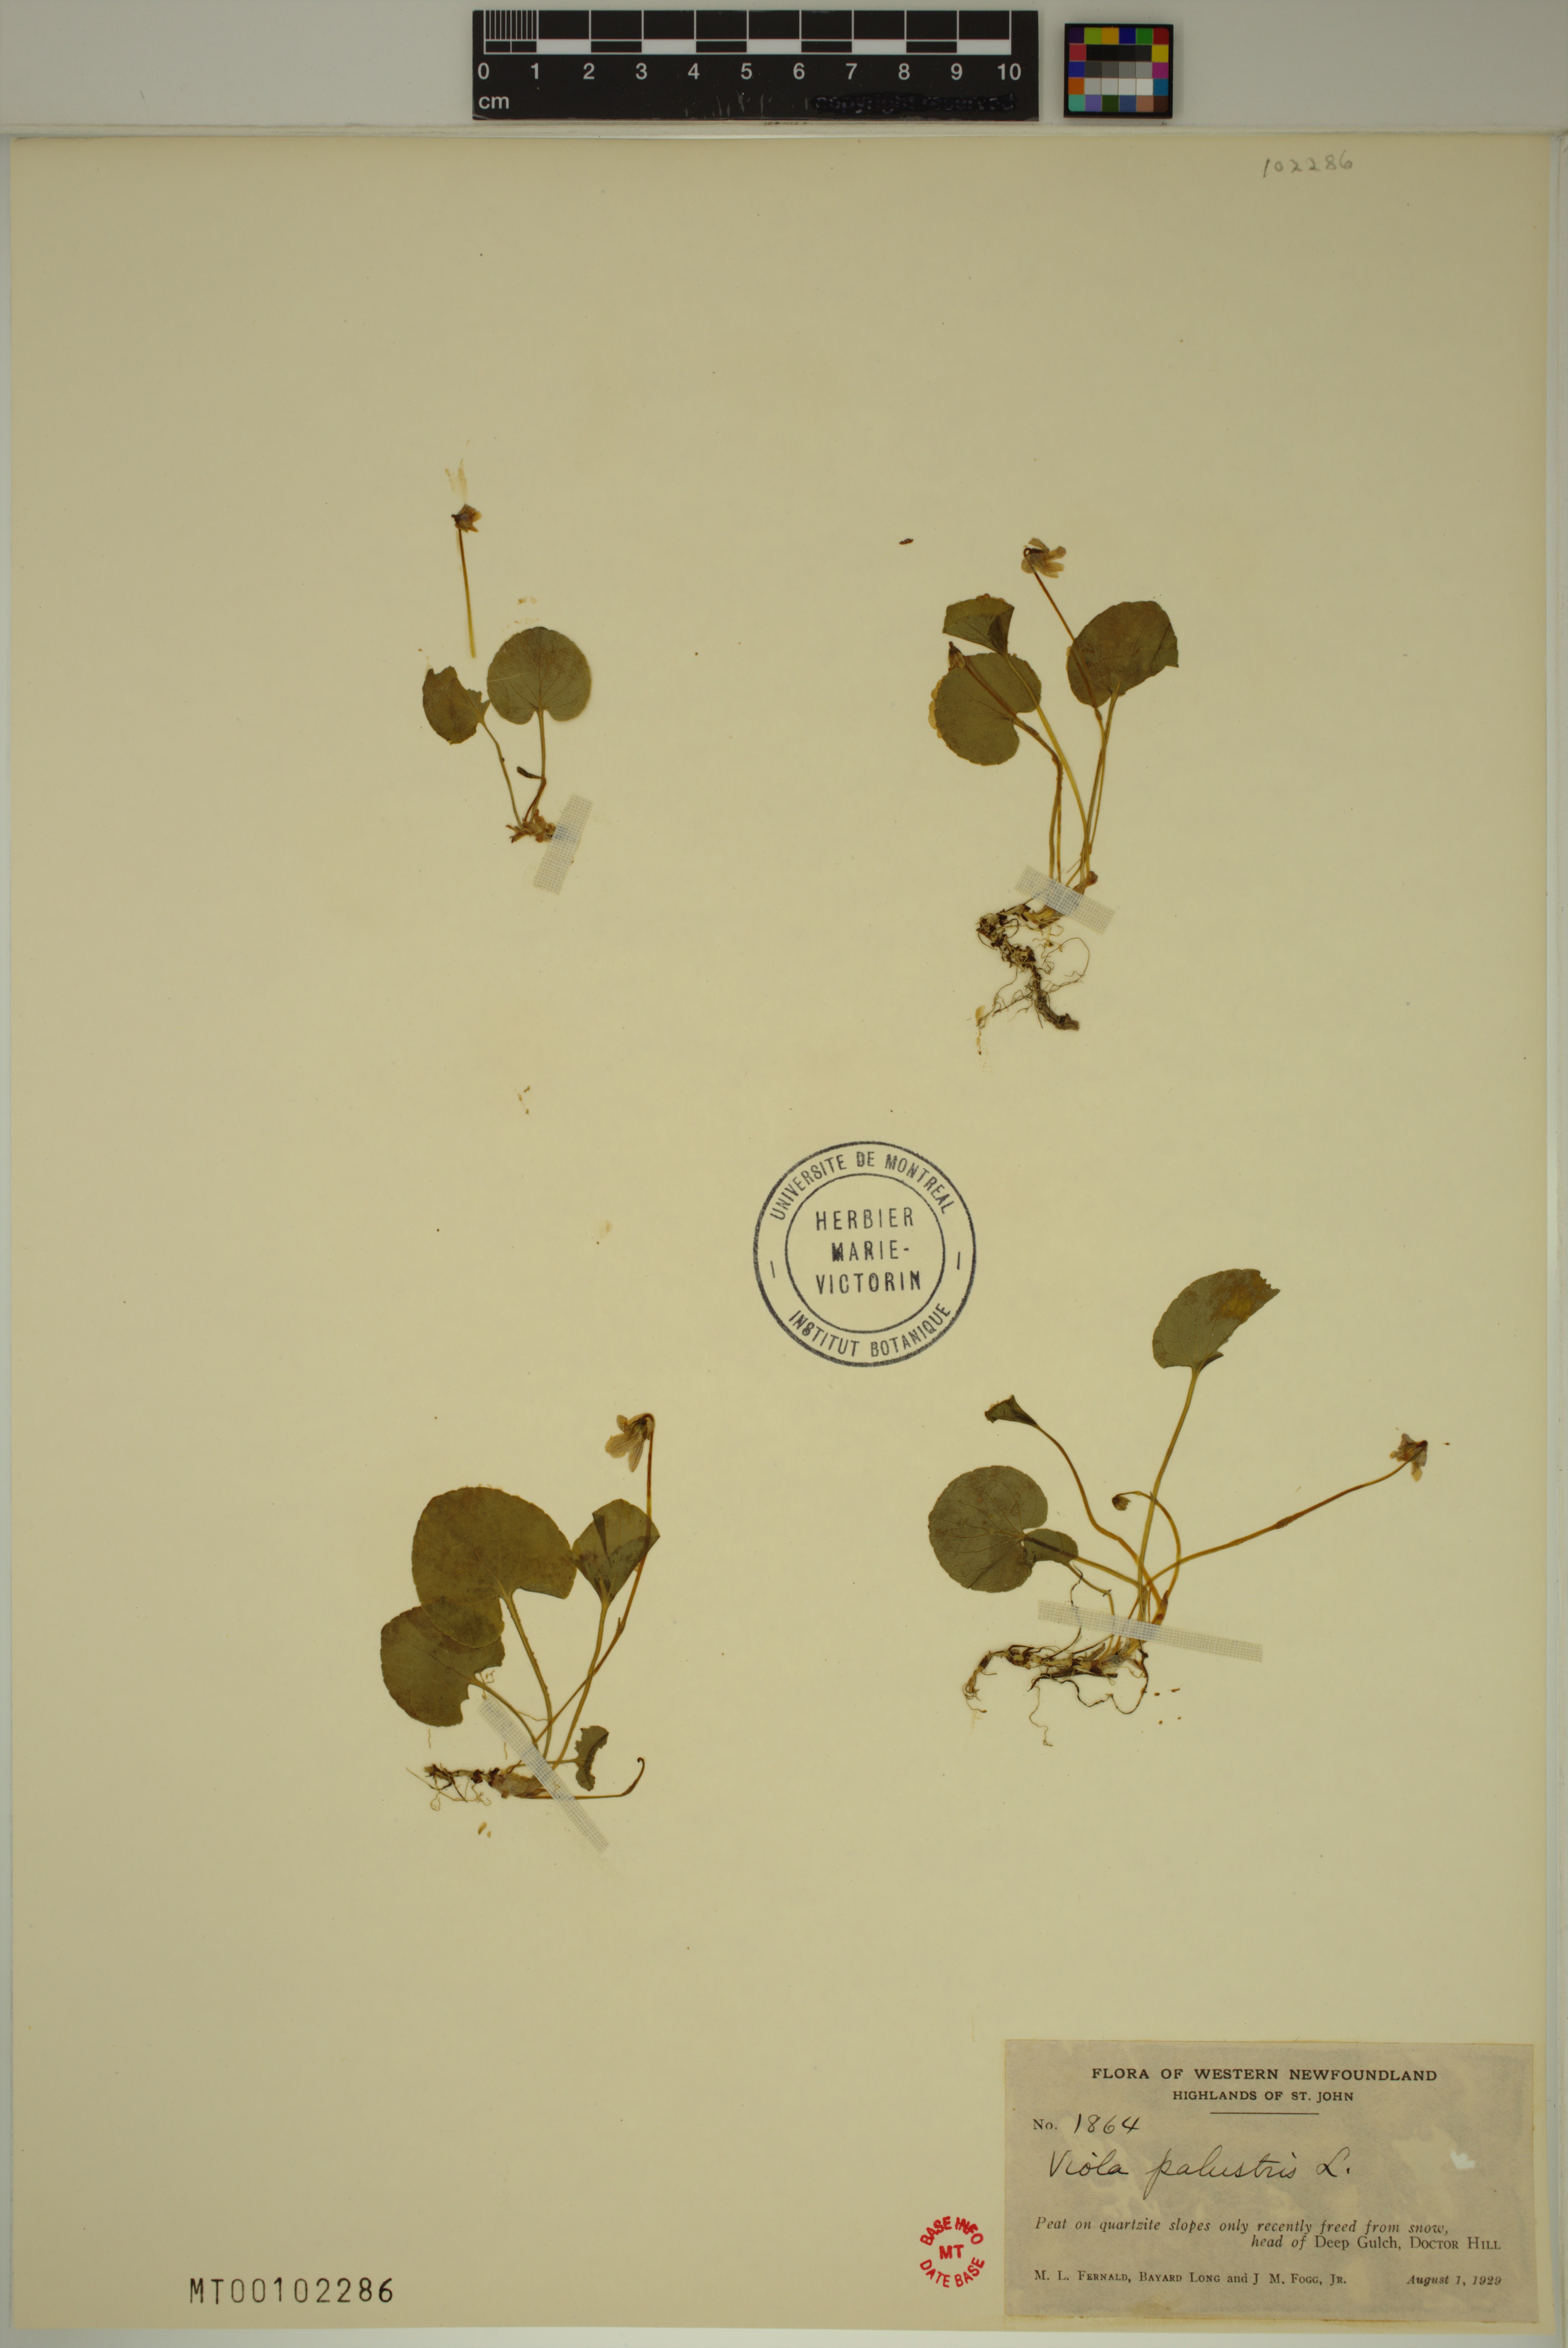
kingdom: Plantae
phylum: Tracheophyta
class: Magnoliopsida
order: Malpighiales
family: Violaceae
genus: Viola
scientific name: Viola palustris
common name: Marsh violet
